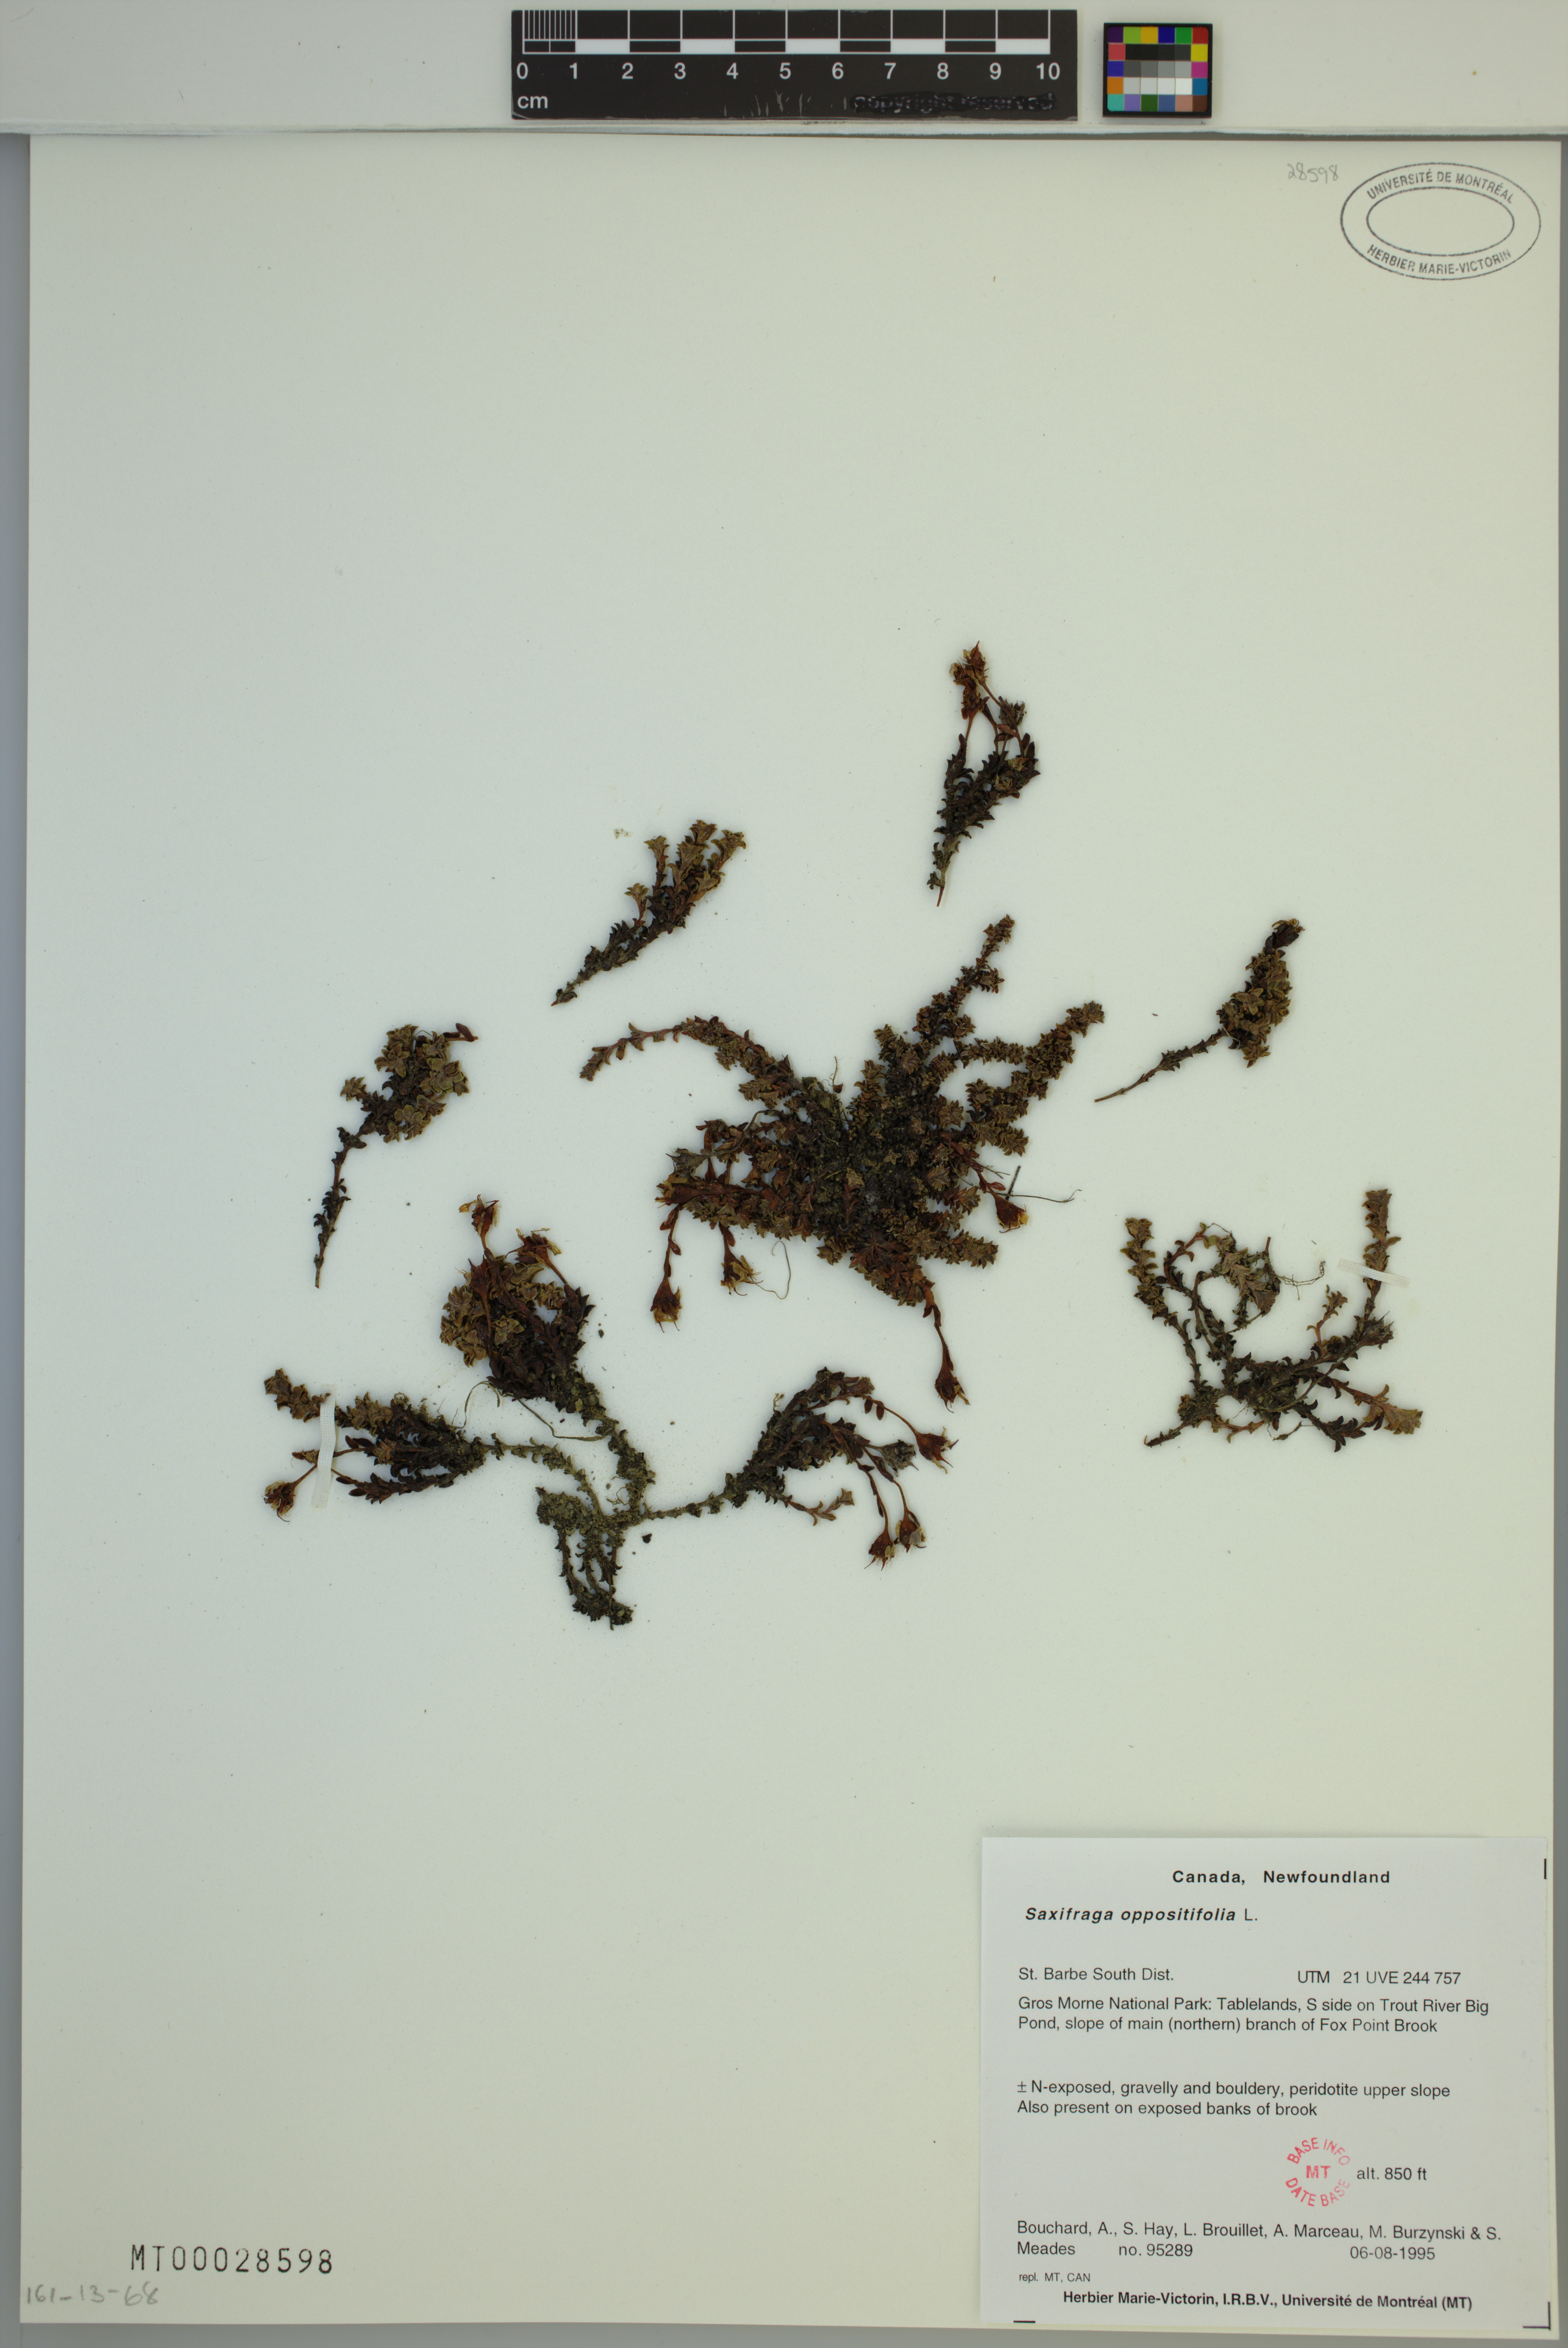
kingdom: Plantae
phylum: Tracheophyta
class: Magnoliopsida
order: Saxifragales
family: Saxifragaceae
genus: Saxifraga
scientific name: Saxifraga oppositifolia
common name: Purple saxifrage
